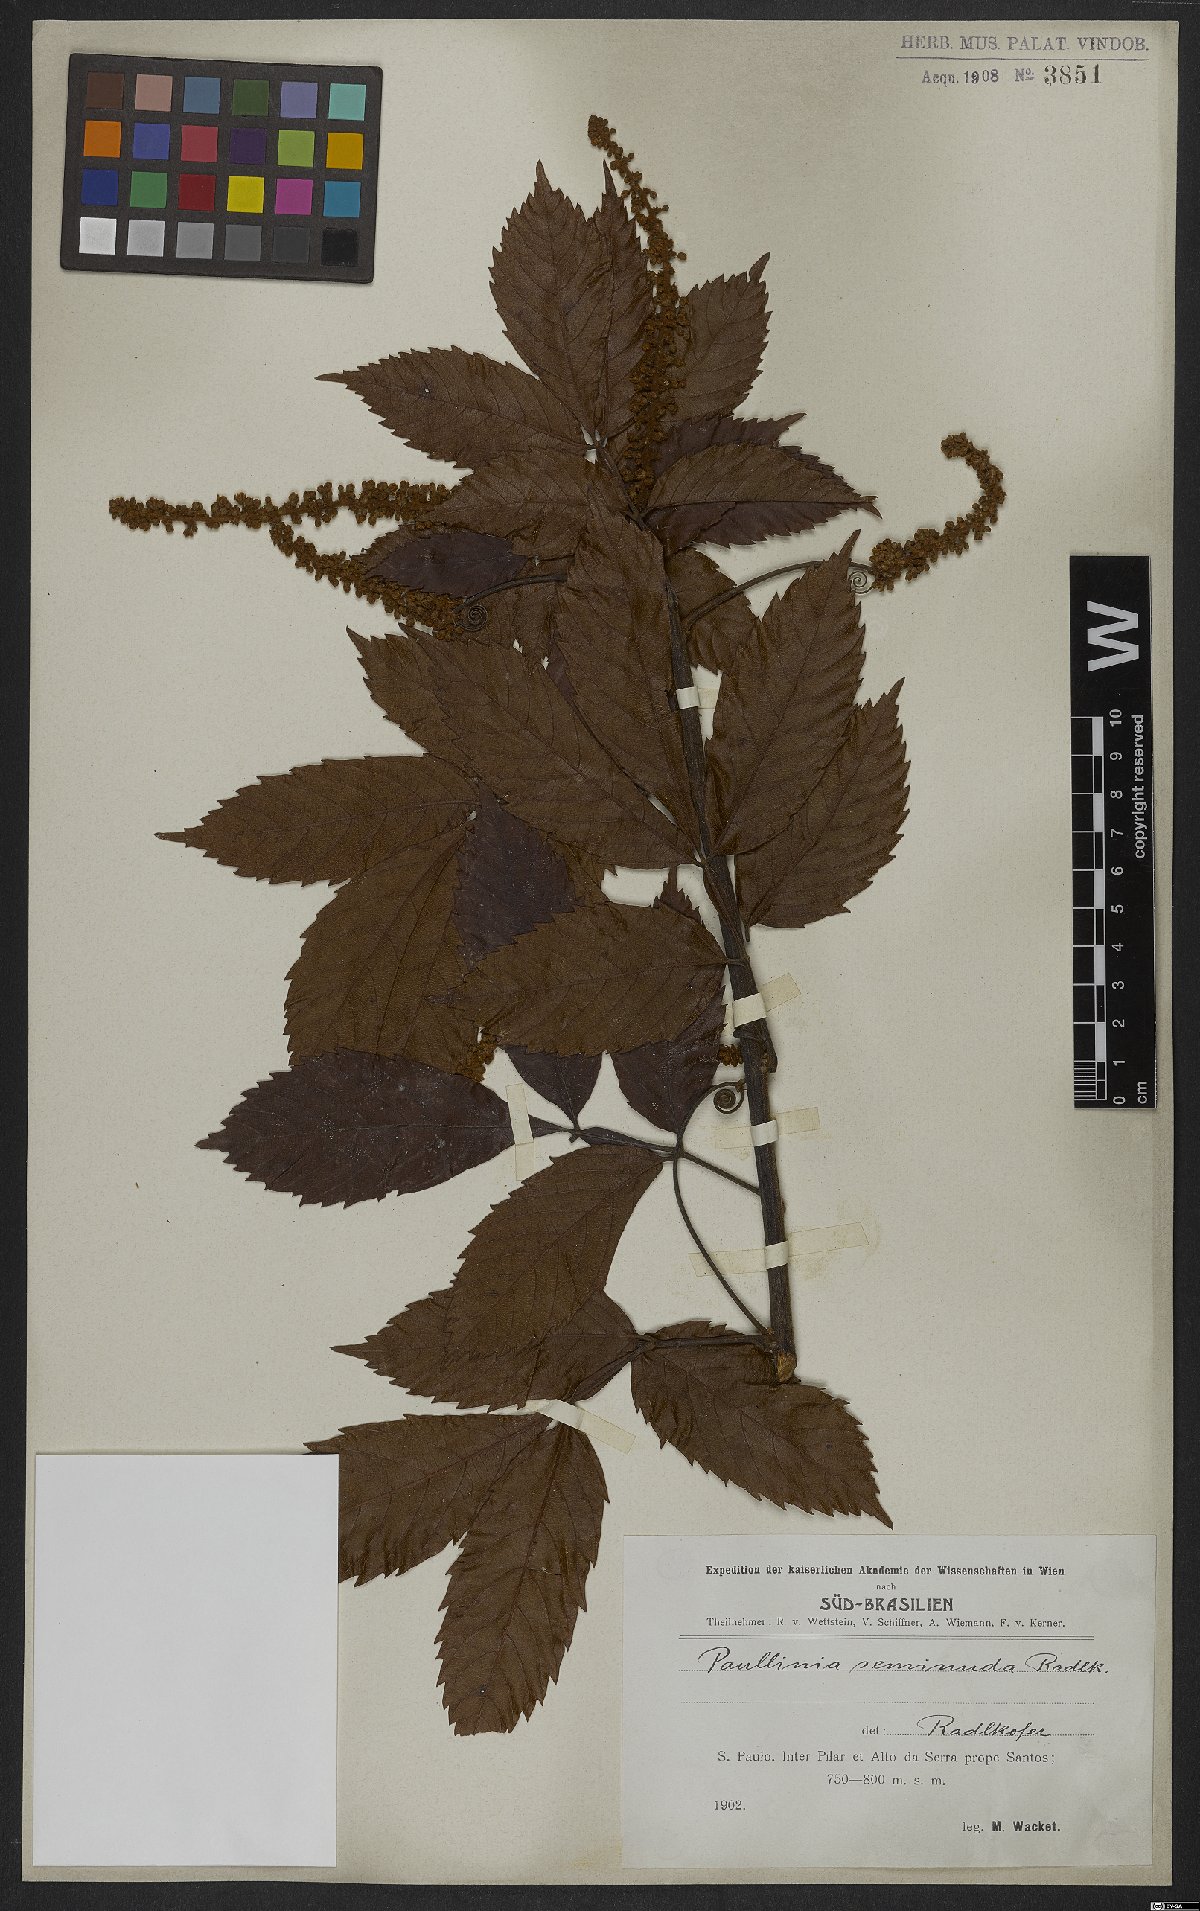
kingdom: Plantae
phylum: Tracheophyta
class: Magnoliopsida
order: Sapindales
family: Sapindaceae
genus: Paullinia
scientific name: Paullinia seminuda
